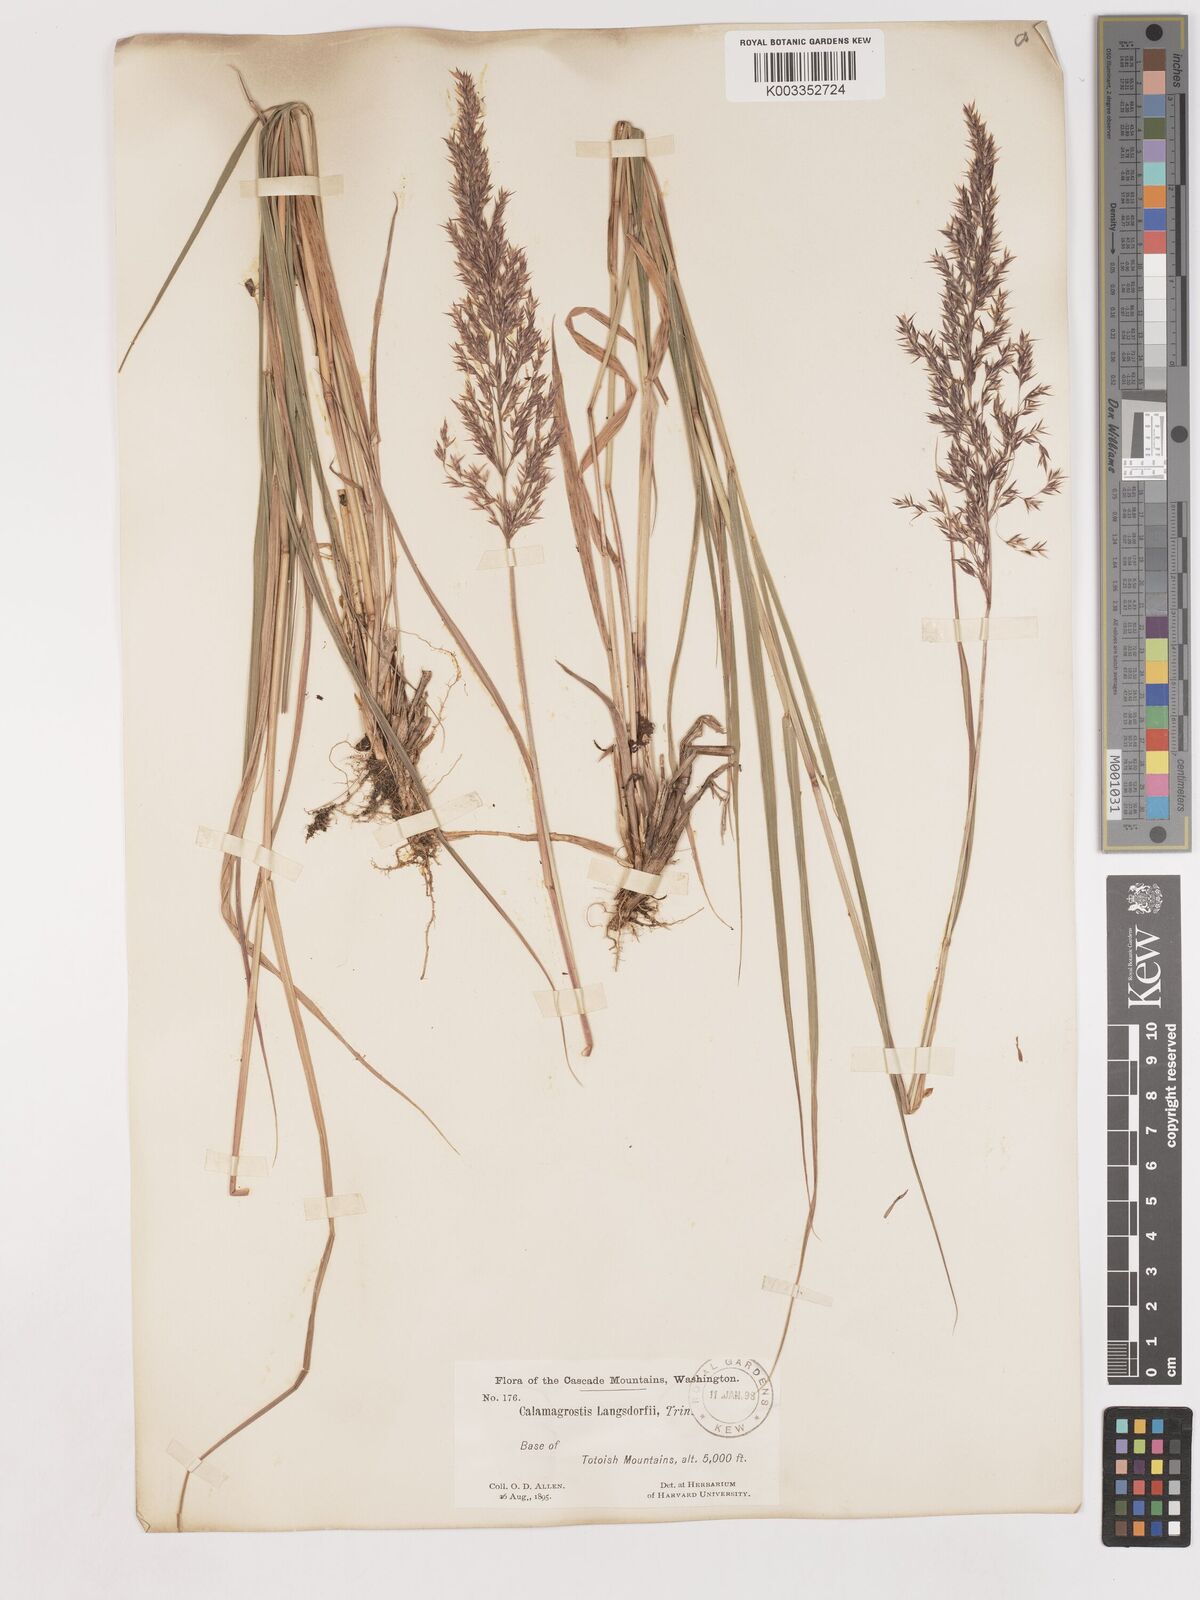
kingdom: Plantae
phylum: Tracheophyta
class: Liliopsida
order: Poales
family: Poaceae
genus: Calamagrostis
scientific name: Calamagrostis canadensis
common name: Canada bluejoint
